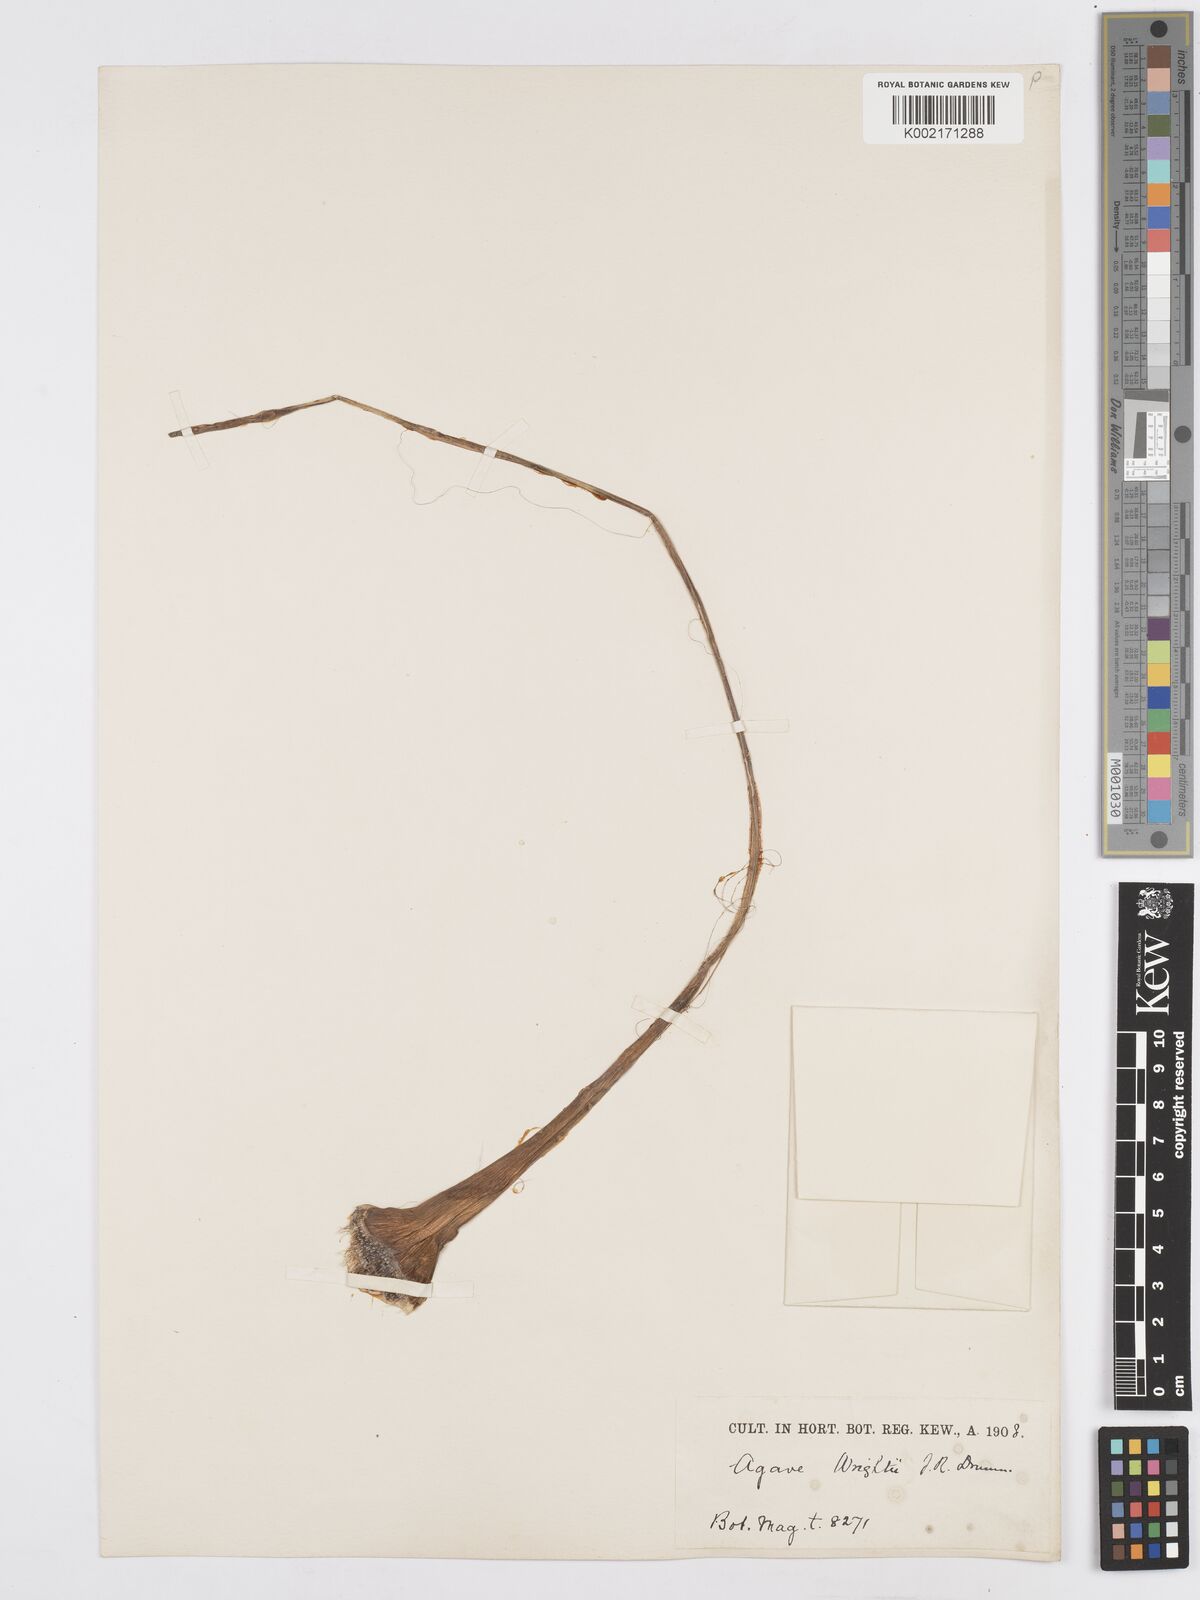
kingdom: Plantae
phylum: Tracheophyta
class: Liliopsida
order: Asparagales
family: Asparagaceae
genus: Agave
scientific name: Agave geminiflora
